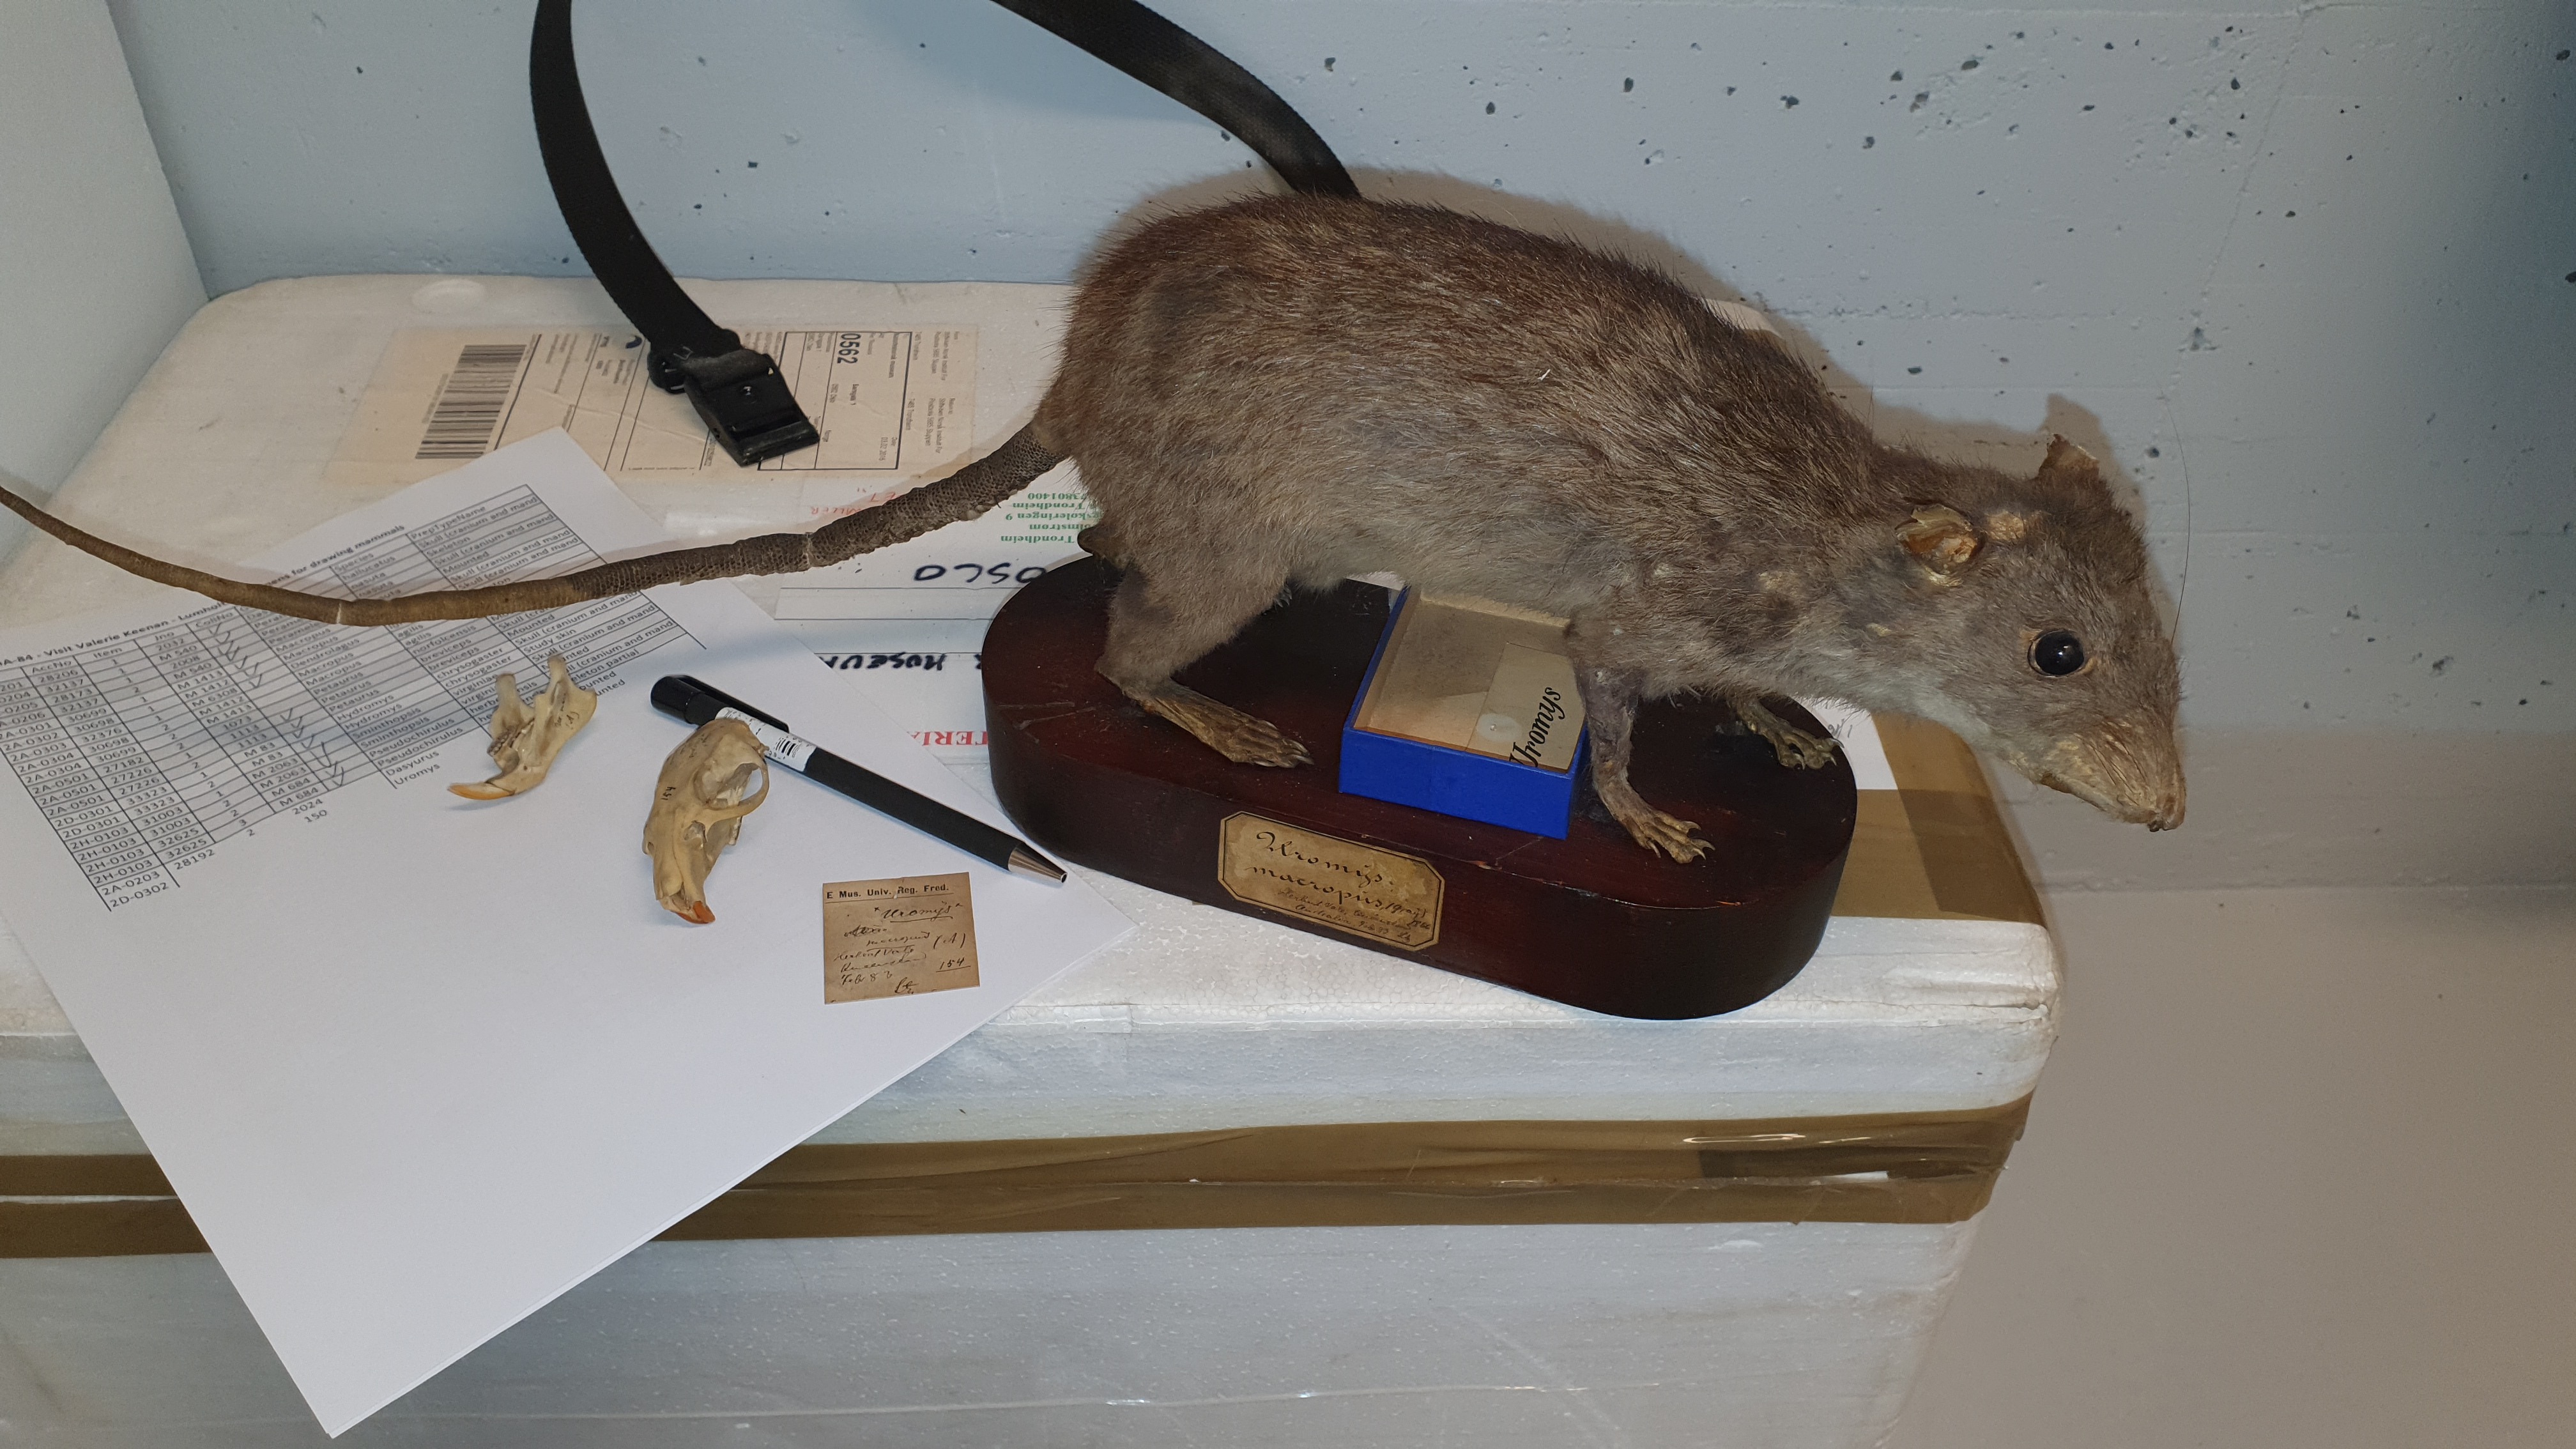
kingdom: Animalia
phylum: Chordata
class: Mammalia
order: Rodentia
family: Muridae
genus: Uromys
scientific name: Uromys caudimaculatus
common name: Giant white-tailed uromys
